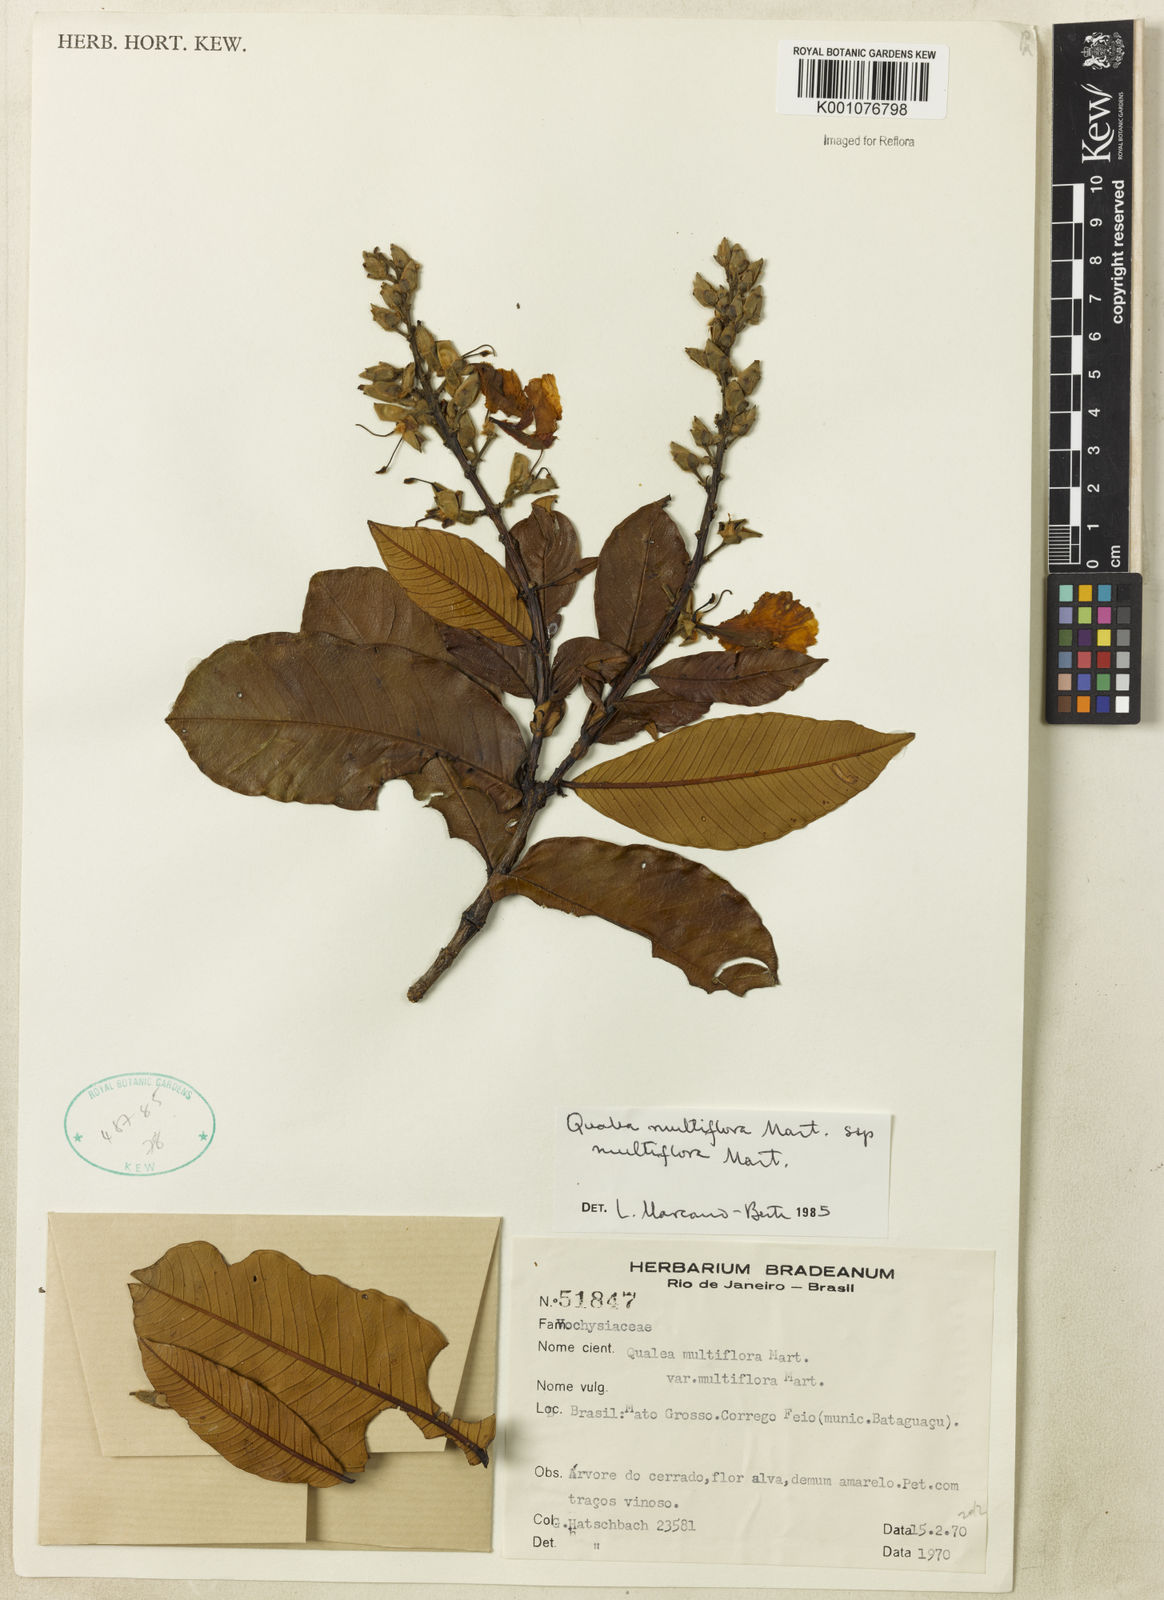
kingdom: Plantae
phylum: Tracheophyta
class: Magnoliopsida
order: Myrtales
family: Vochysiaceae
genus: Qualea
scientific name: Qualea multiflora
